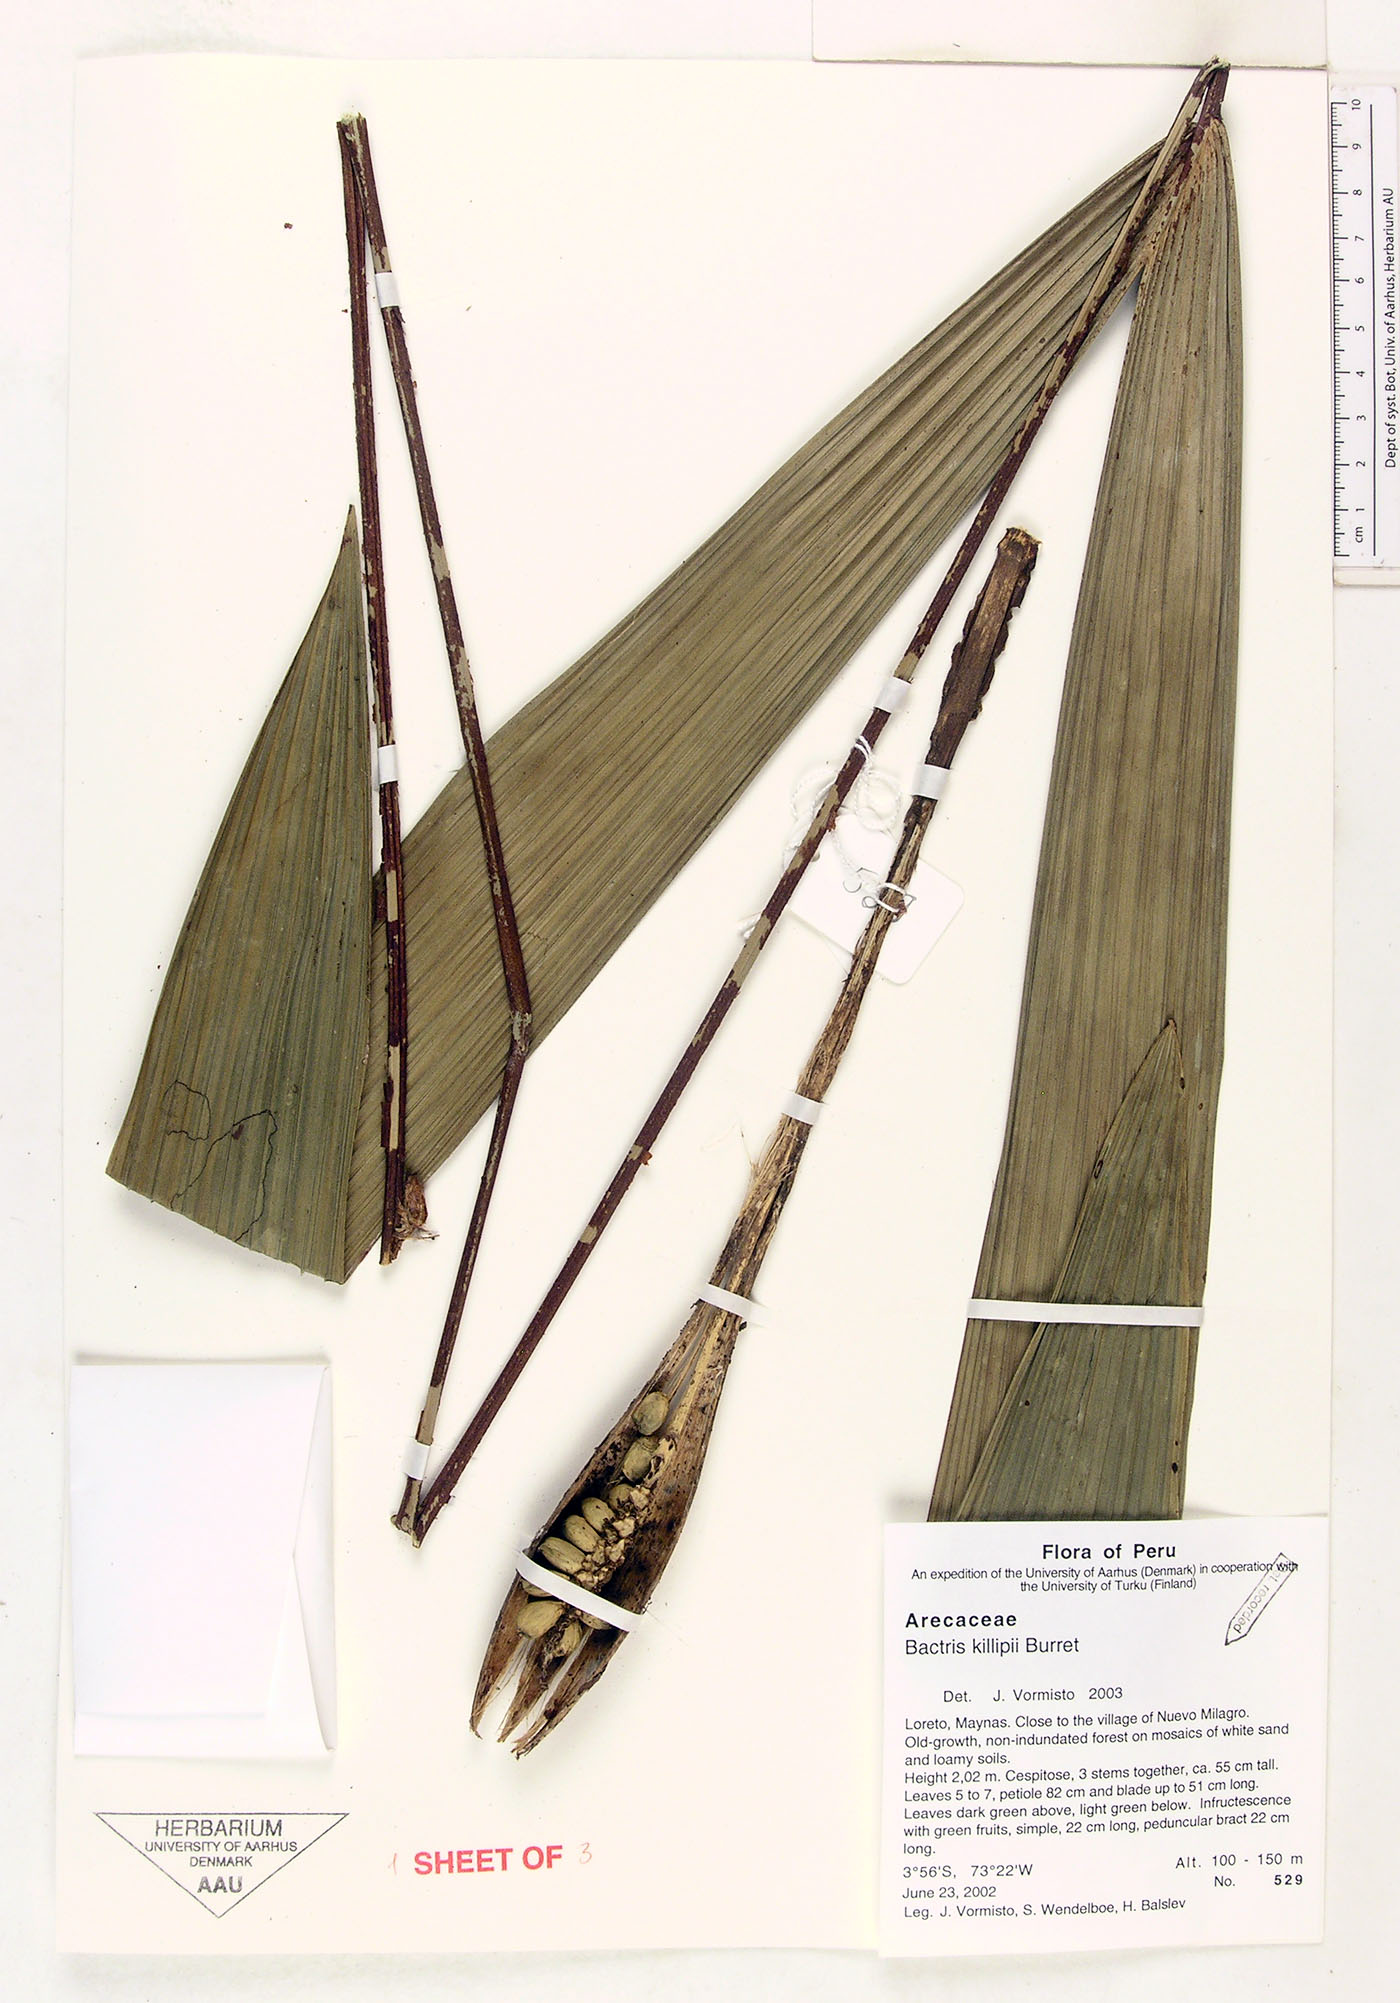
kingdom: Plantae
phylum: Tracheophyta
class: Liliopsida
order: Arecales
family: Arecaceae
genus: Bactris
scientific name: Bactris killipii
